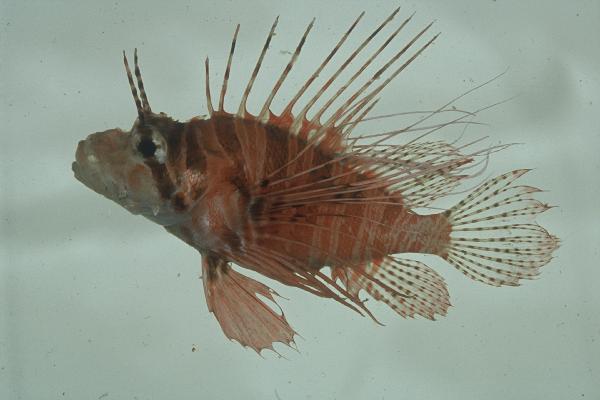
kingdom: Animalia
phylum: Chordata
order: Scorpaeniformes
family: Scorpaenidae
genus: Pterois
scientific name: Pterois antennata
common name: Spotfin lionfish
